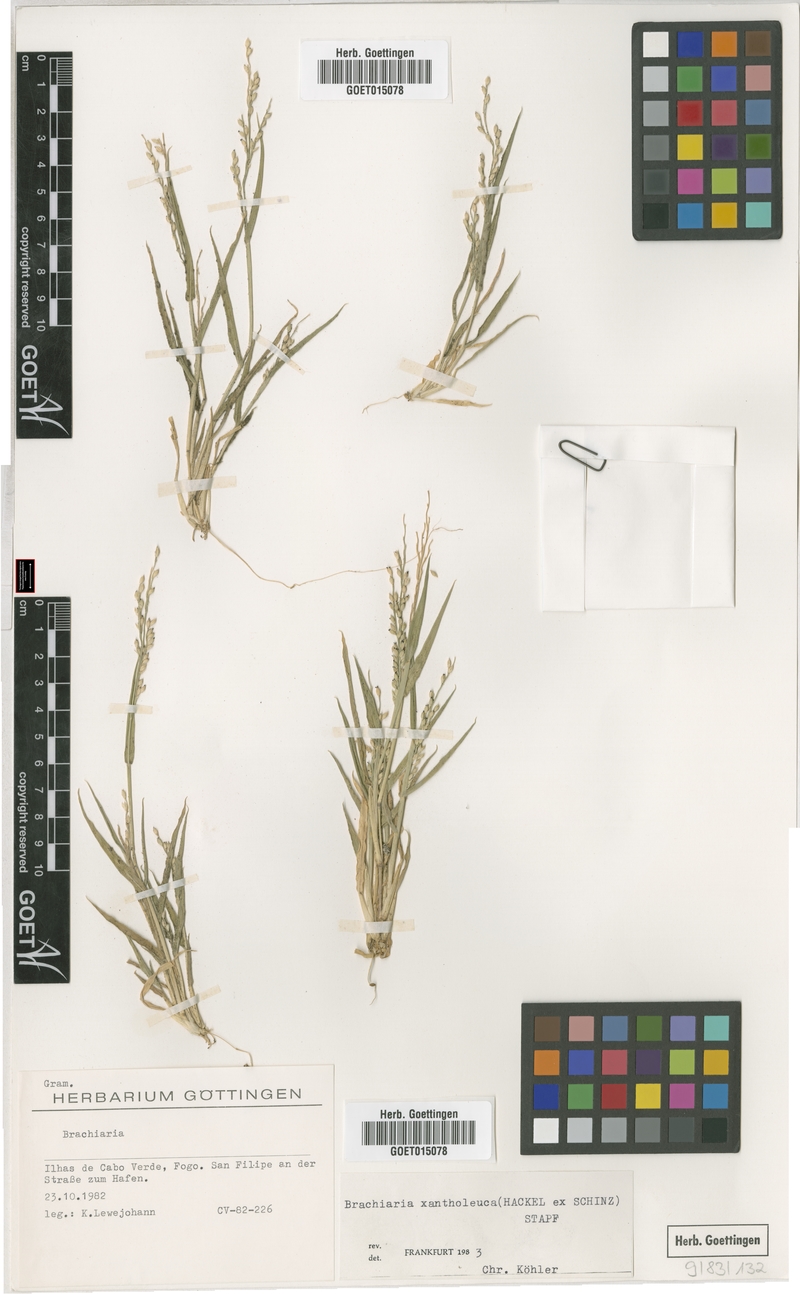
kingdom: Plantae
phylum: Tracheophyta
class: Liliopsida
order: Poales
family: Poaceae
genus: Urochloa
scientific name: Urochloa xantholeuca
